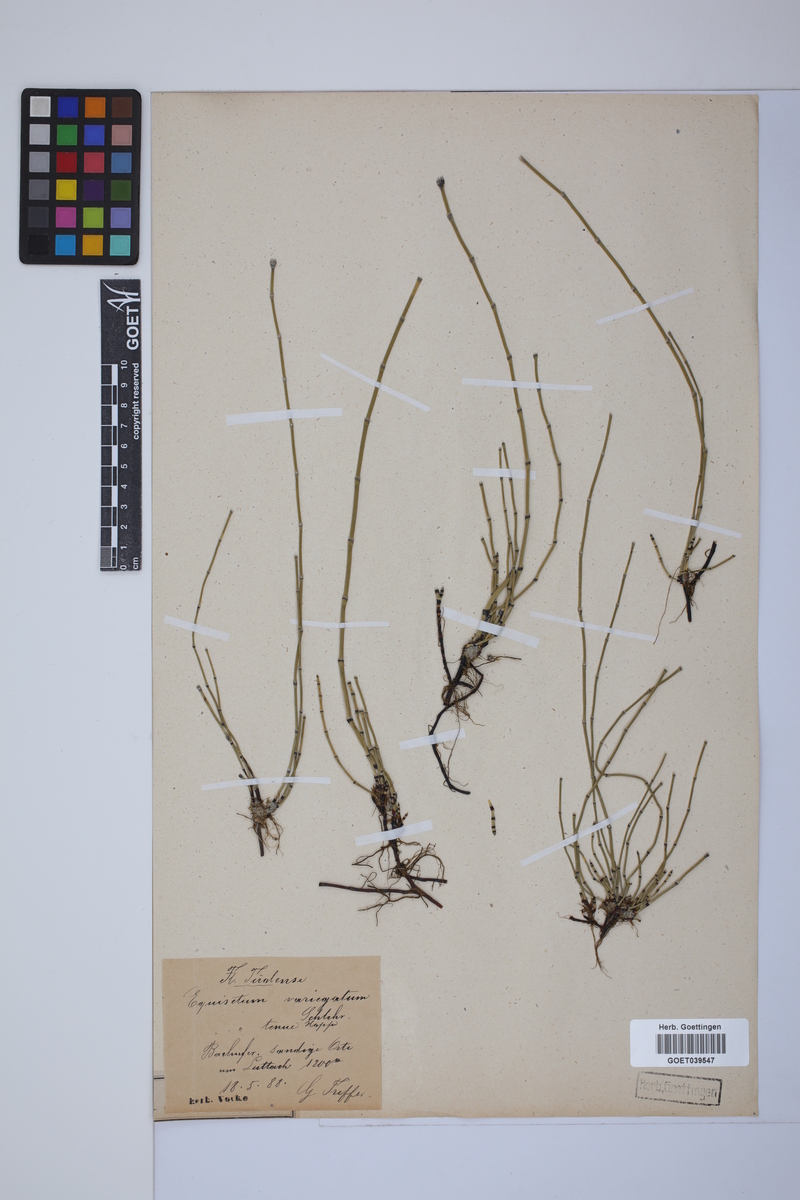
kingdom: Plantae
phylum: Tracheophyta
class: Polypodiopsida
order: Equisetales
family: Equisetaceae
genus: Equisetum
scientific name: Equisetum variegatum
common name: Variegated horsetail
